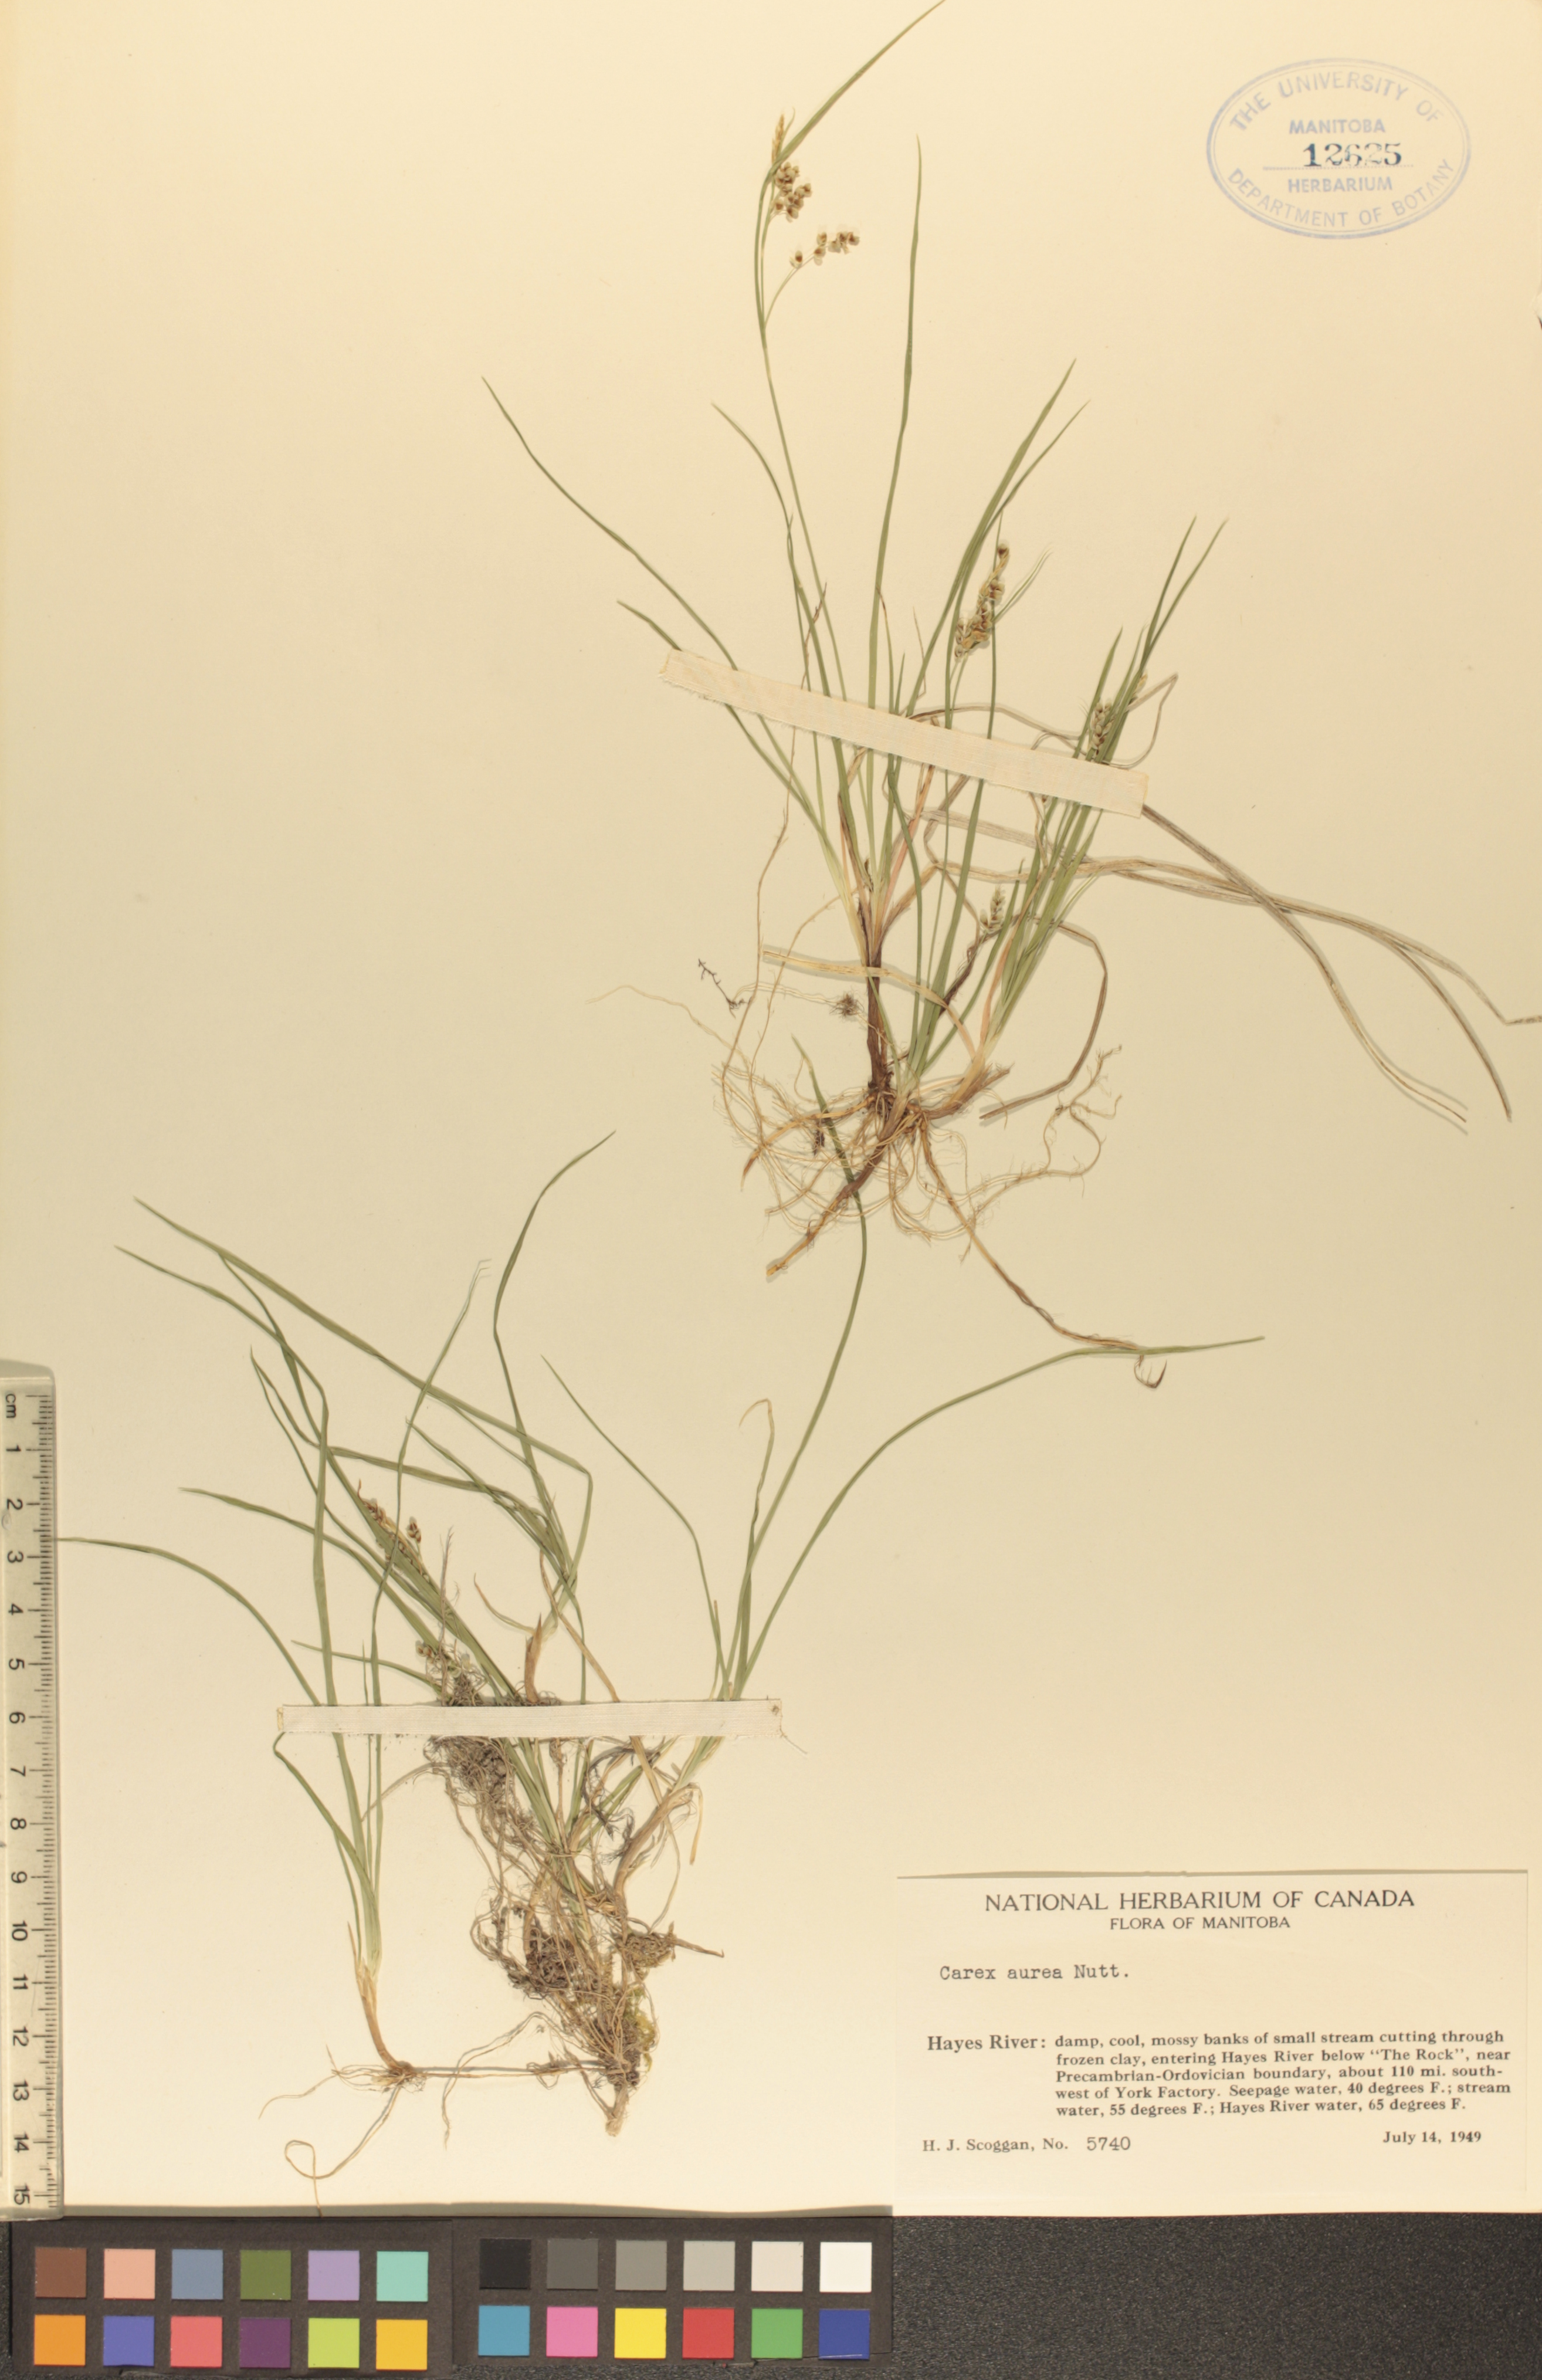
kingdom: Plantae
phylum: Tracheophyta
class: Liliopsida
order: Poales
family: Cyperaceae
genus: Carex
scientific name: Carex aurea
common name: Golden sedge
